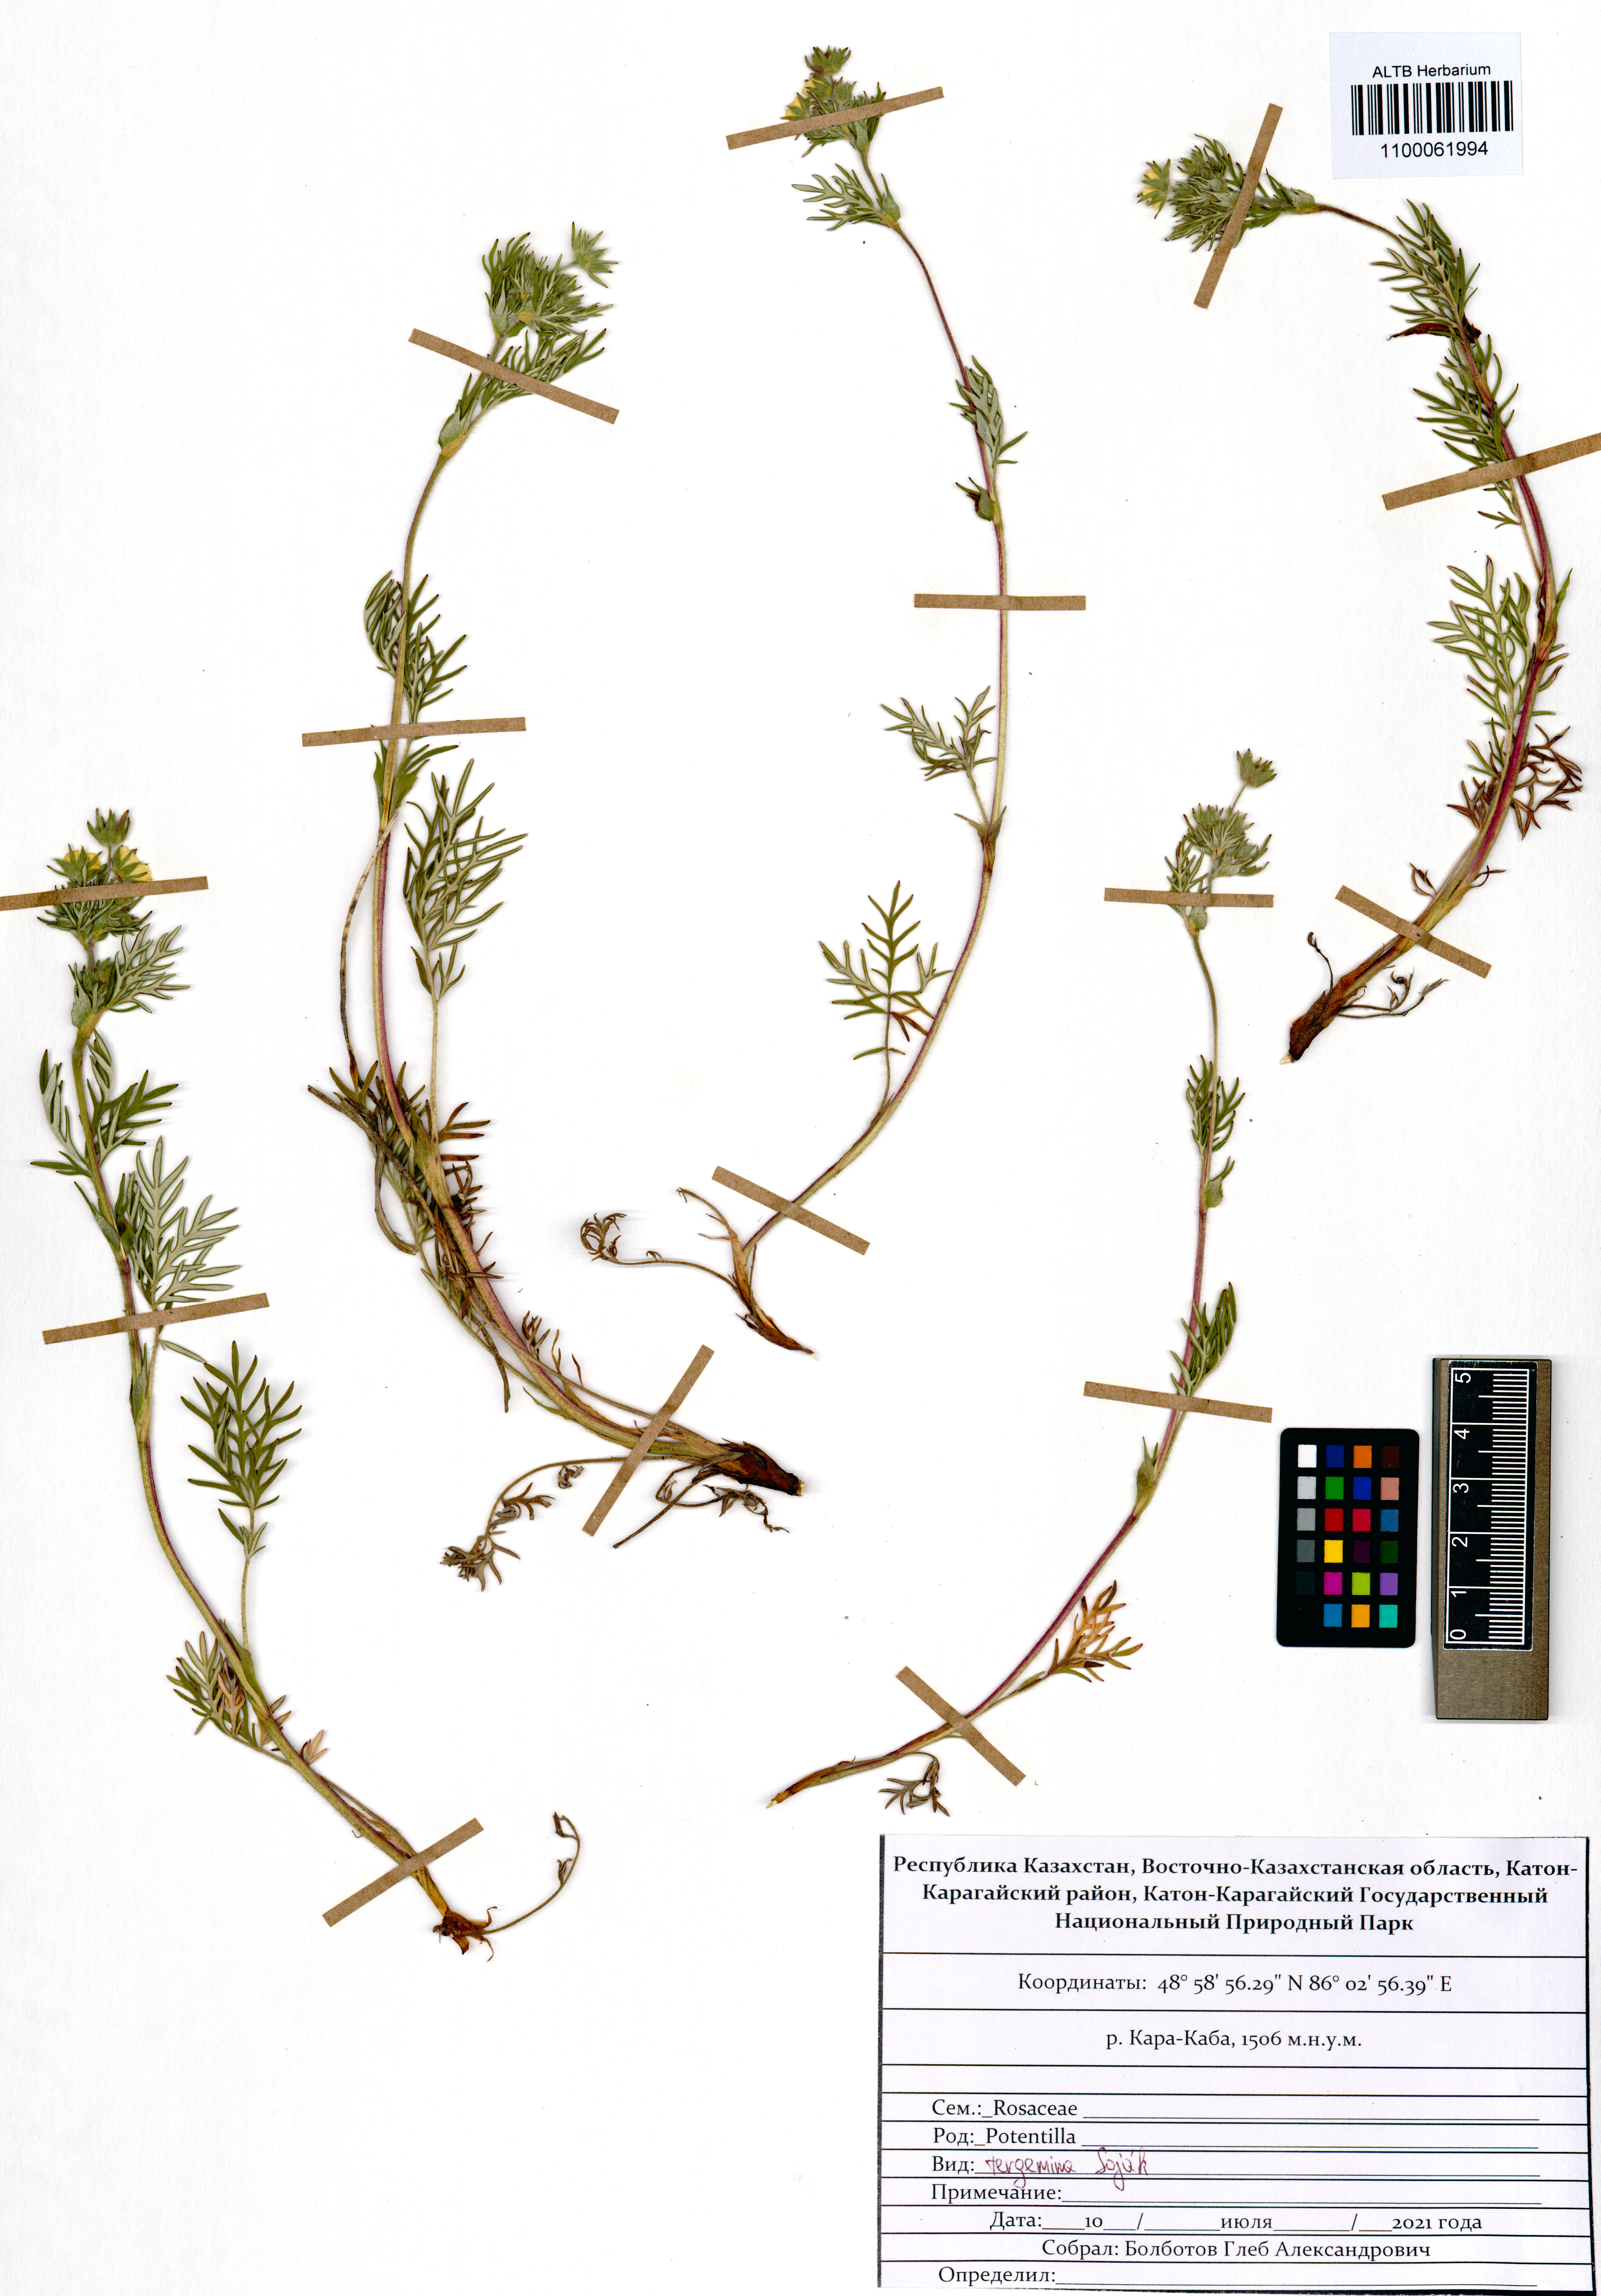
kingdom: Plantae
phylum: Tracheophyta
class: Magnoliopsida
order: Rosales
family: Rosaceae
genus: Potentilla
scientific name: Potentilla tergemina
